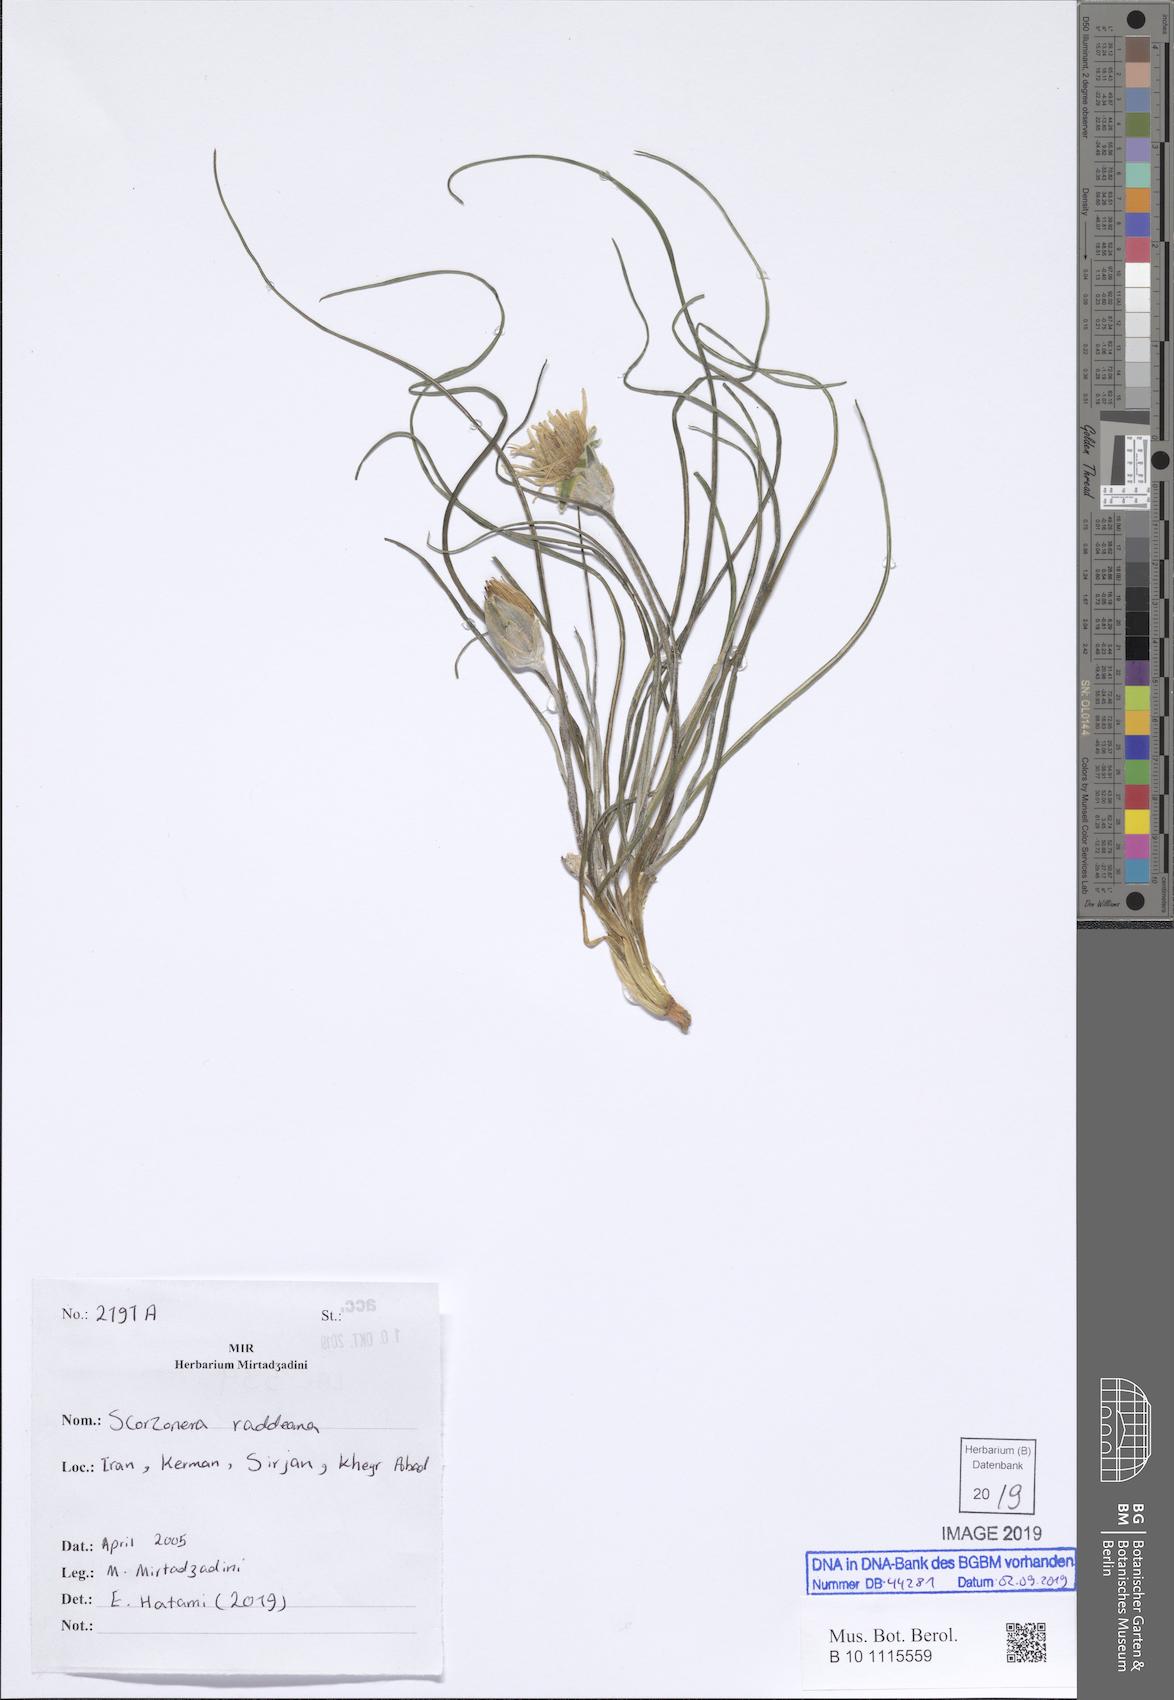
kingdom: Plantae
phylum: Tracheophyta
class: Magnoliopsida
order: Asterales
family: Asteraceae
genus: Candollea
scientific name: Candollea raddeana
